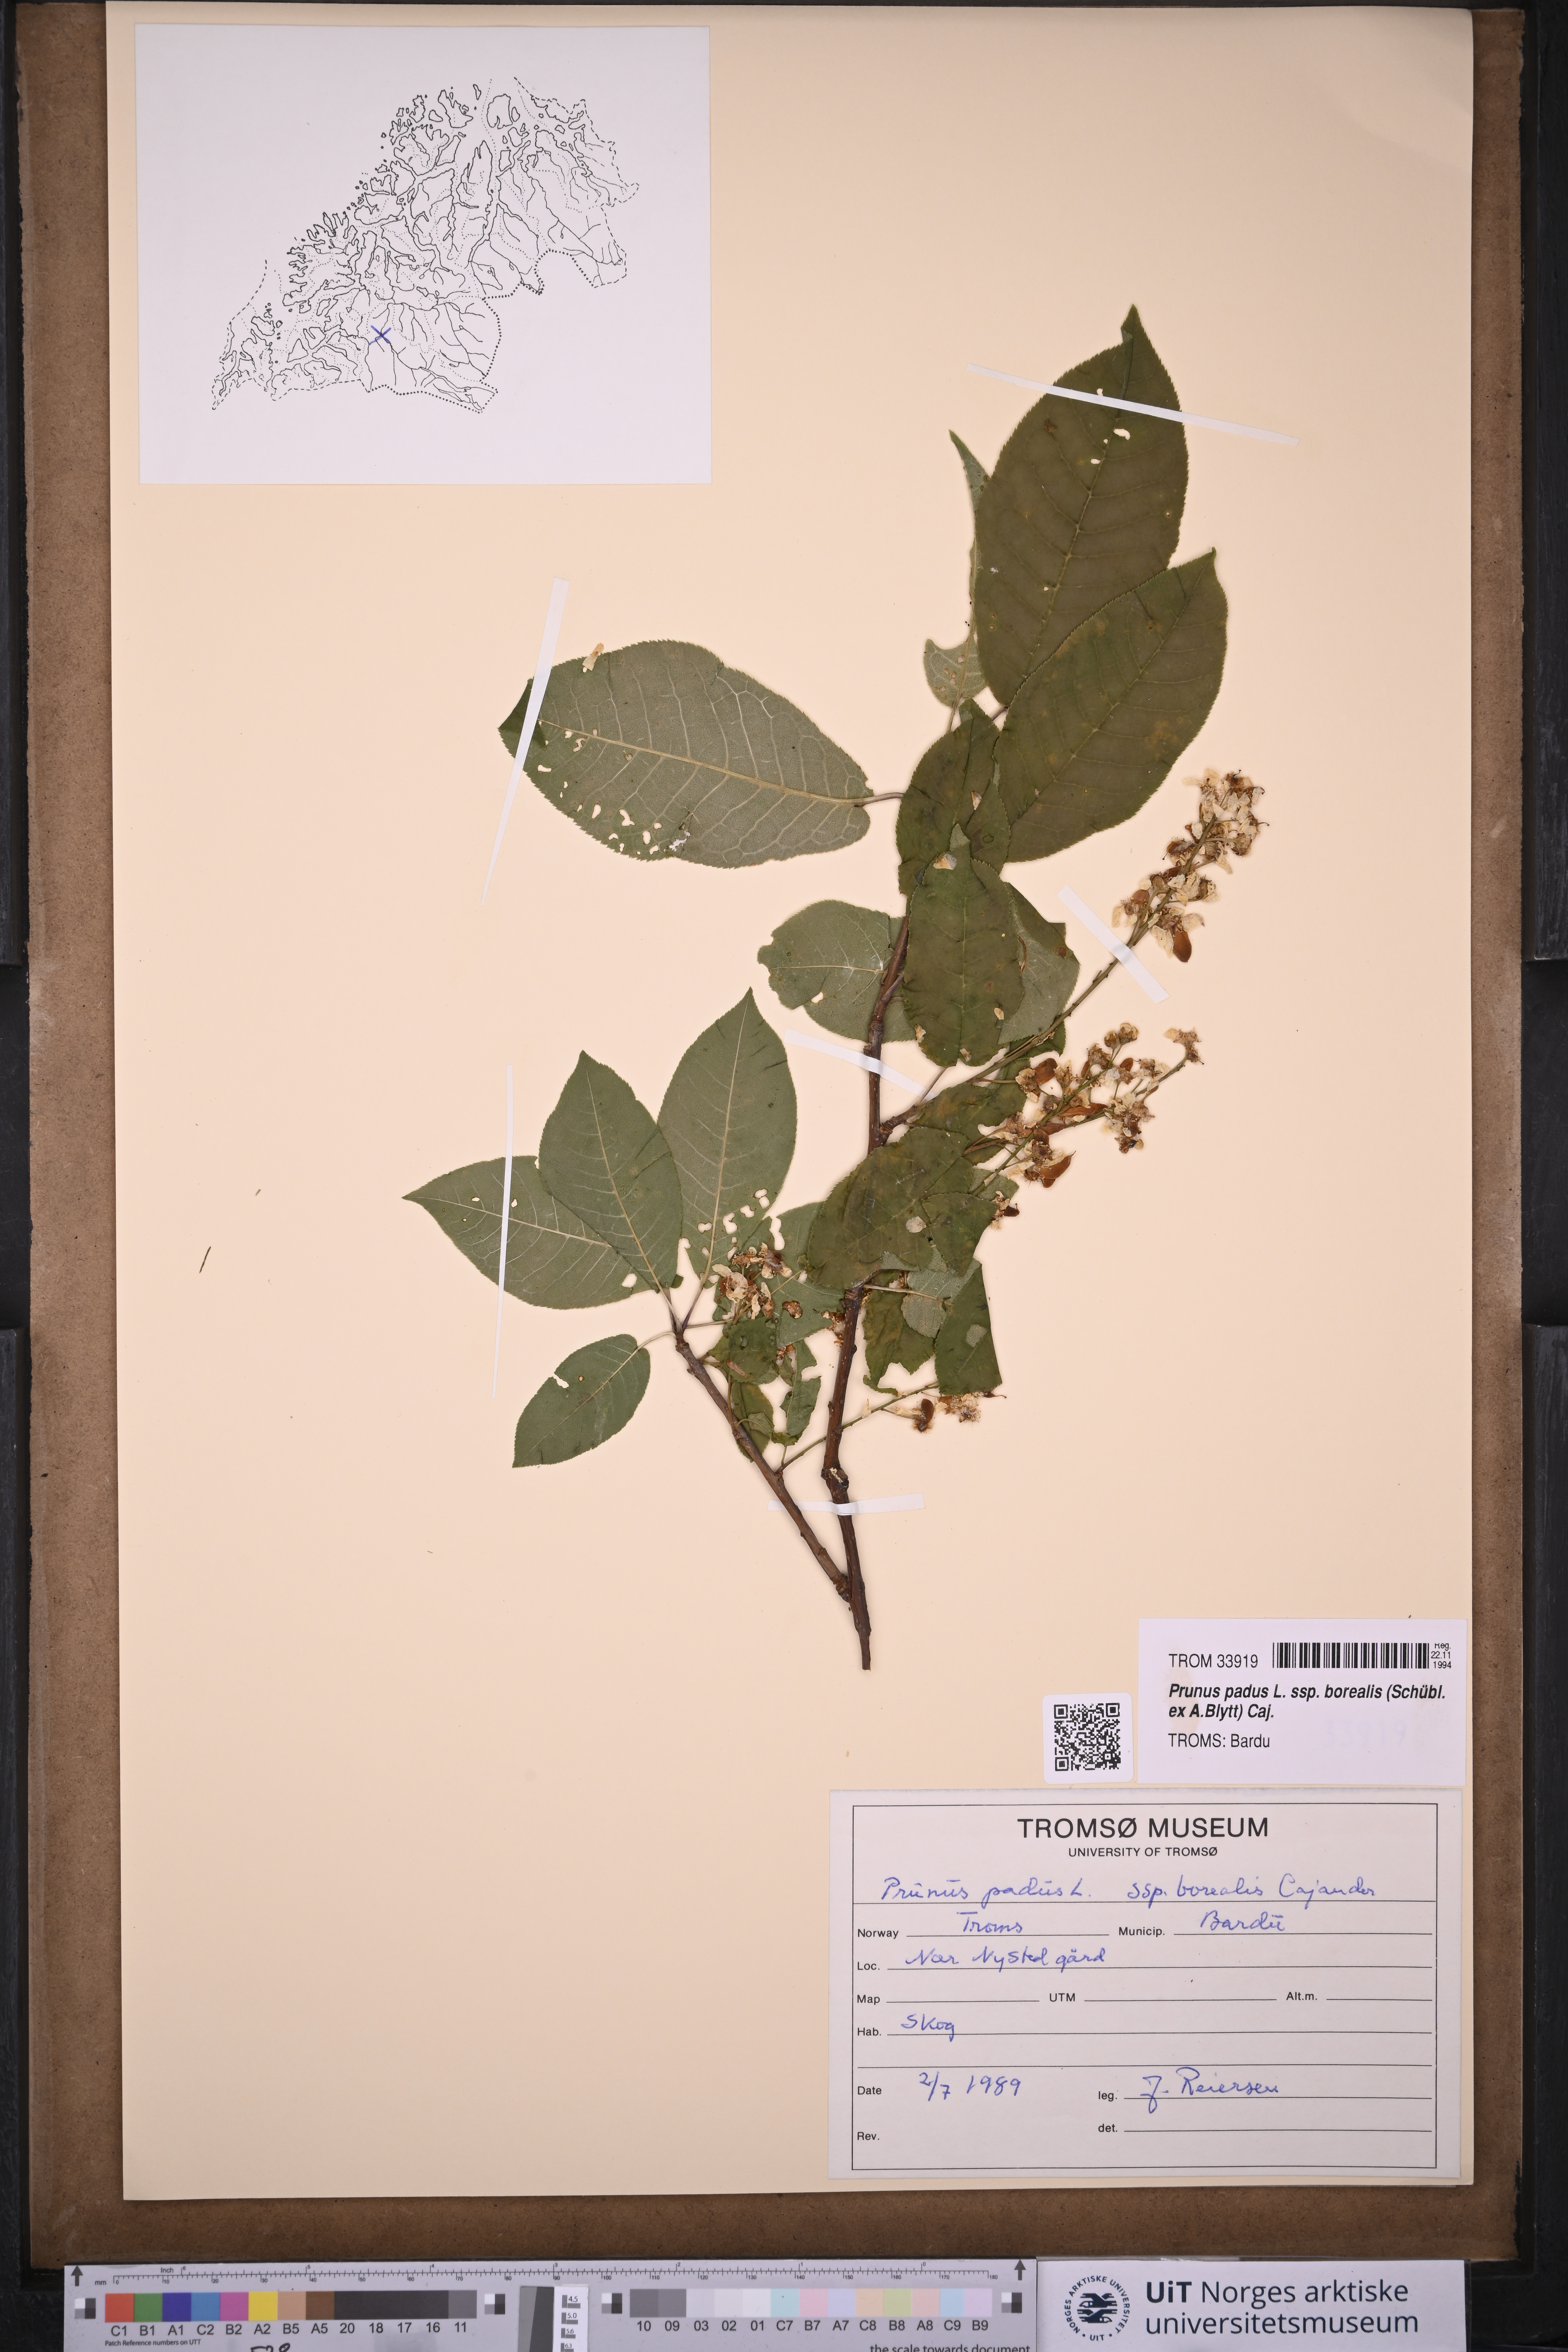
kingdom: Plantae
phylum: Tracheophyta
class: Magnoliopsida
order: Rosales
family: Rosaceae
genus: Prunus
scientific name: Prunus padus
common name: Bird cherry
